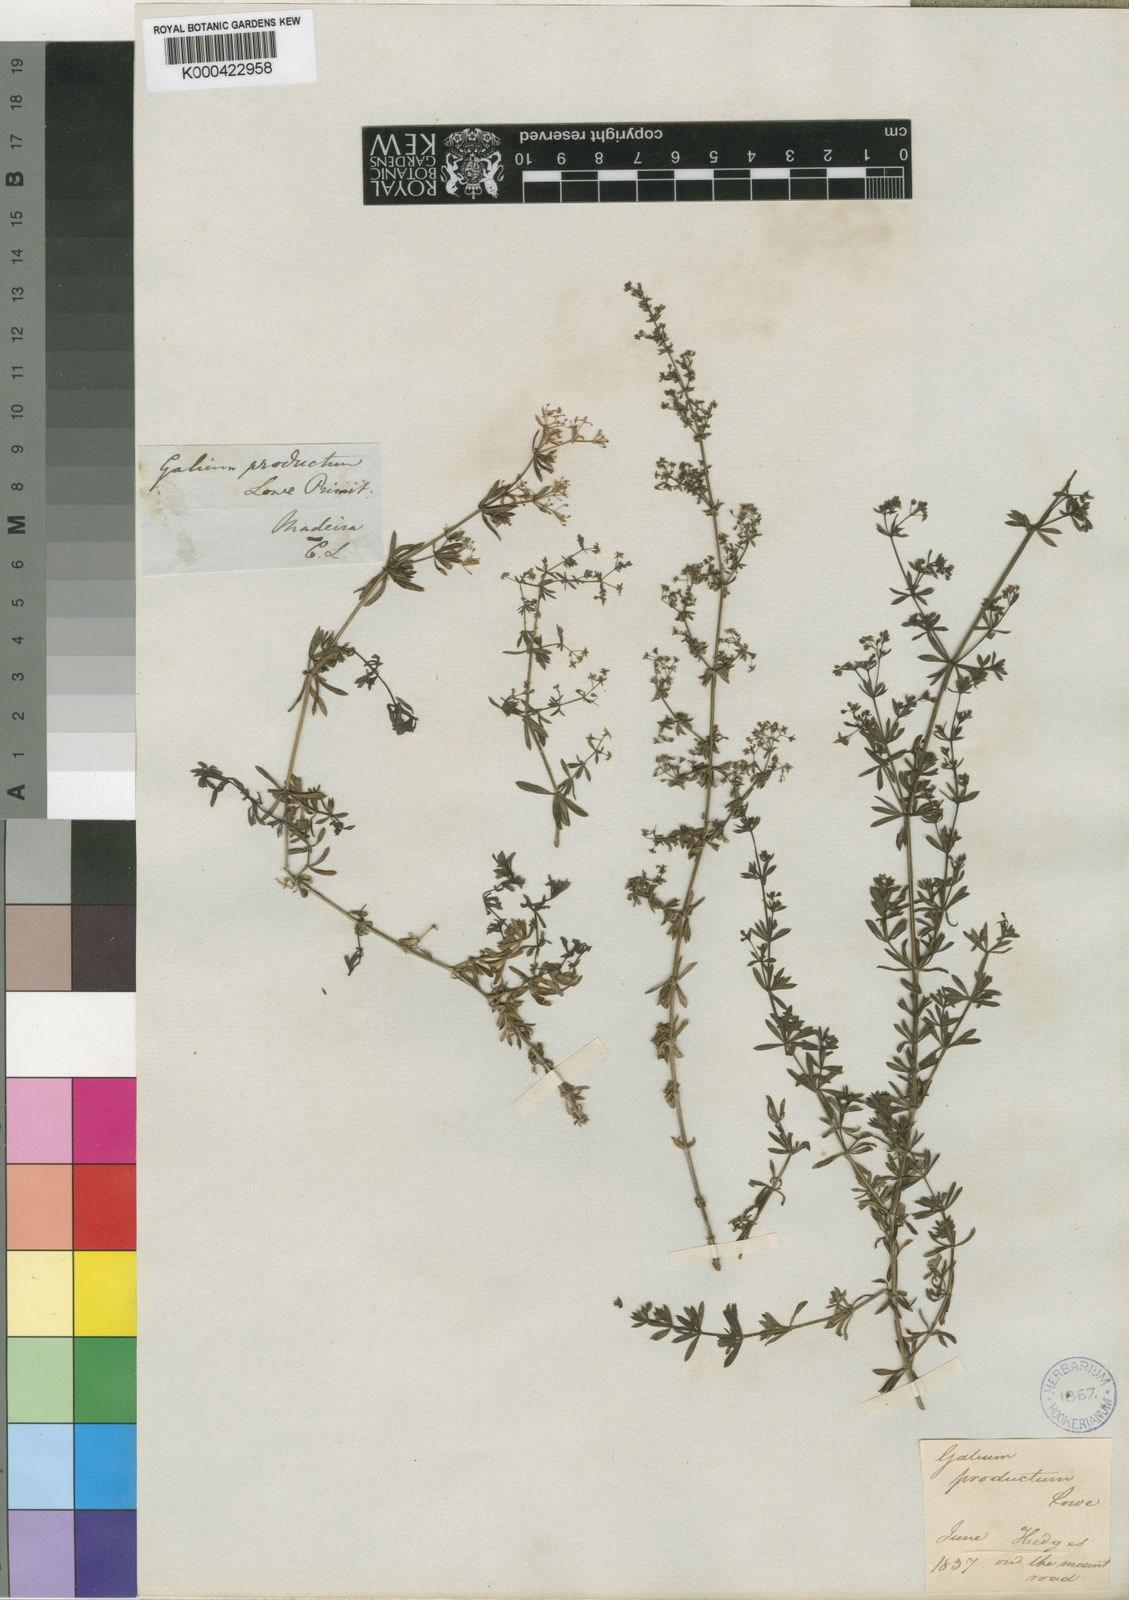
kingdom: Plantae
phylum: Tracheophyta
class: Magnoliopsida
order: Gentianales
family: Rubiaceae
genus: Galium
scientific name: Galium productum
